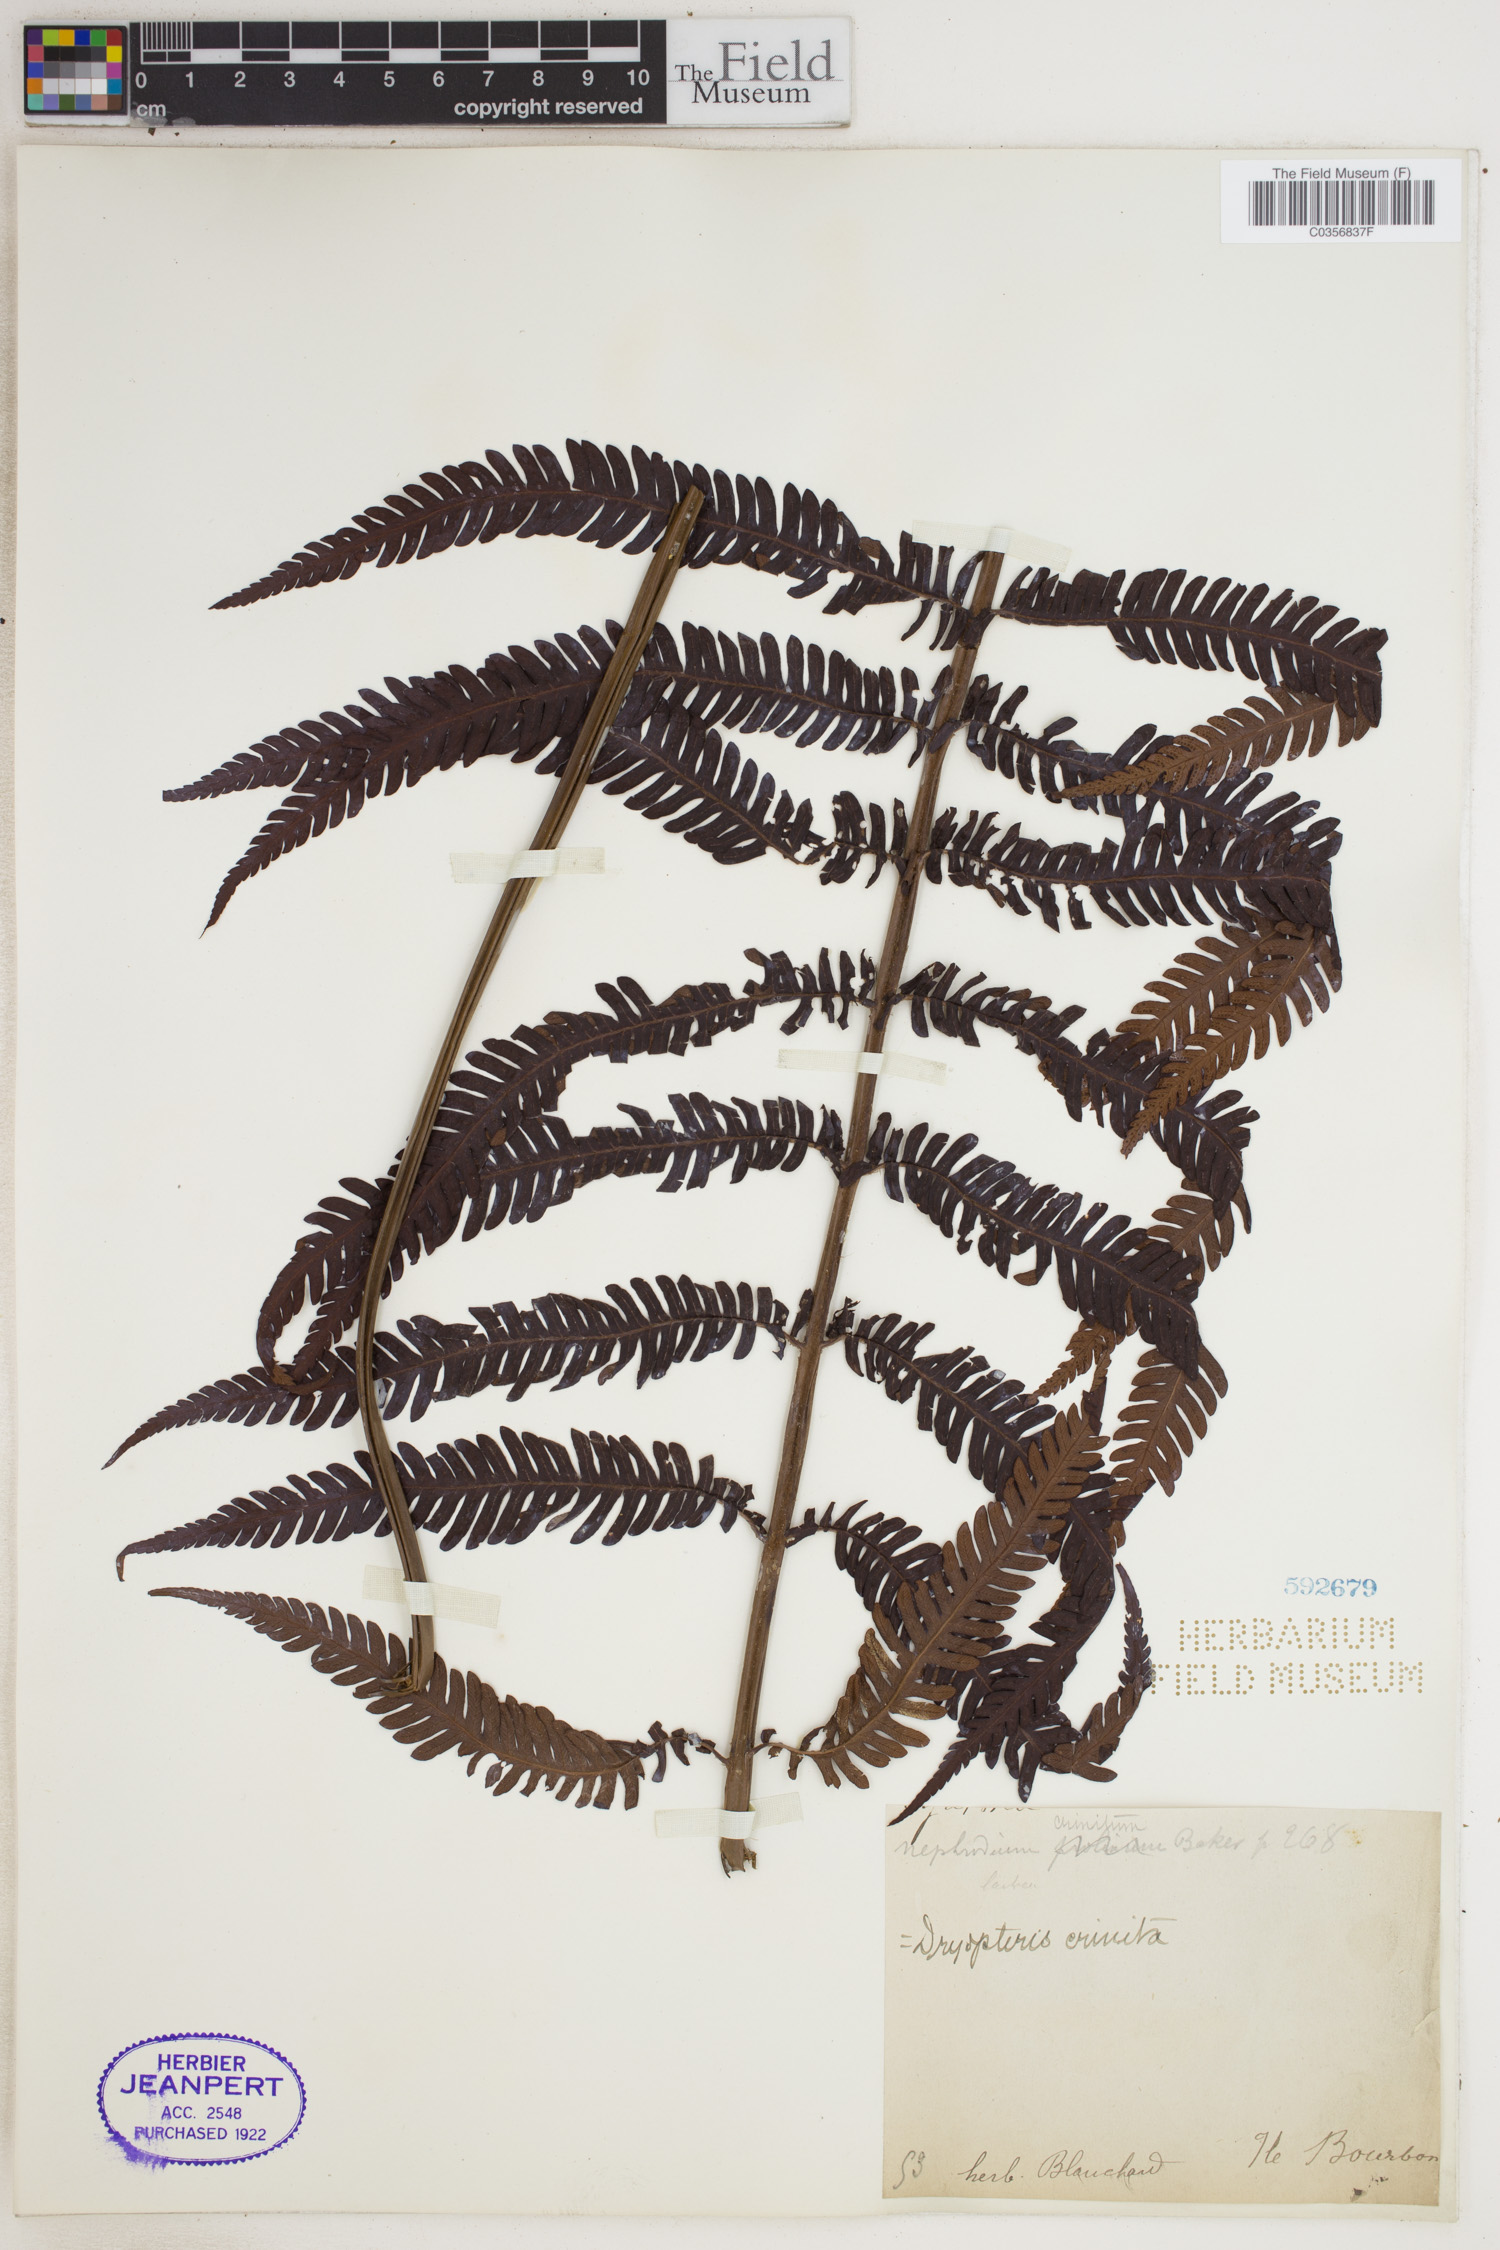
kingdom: Plantae
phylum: Tracheophyta
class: Polypodiopsida
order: Polypodiales
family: Dryopteridaceae
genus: Ctenitis
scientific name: Ctenitis crinita
